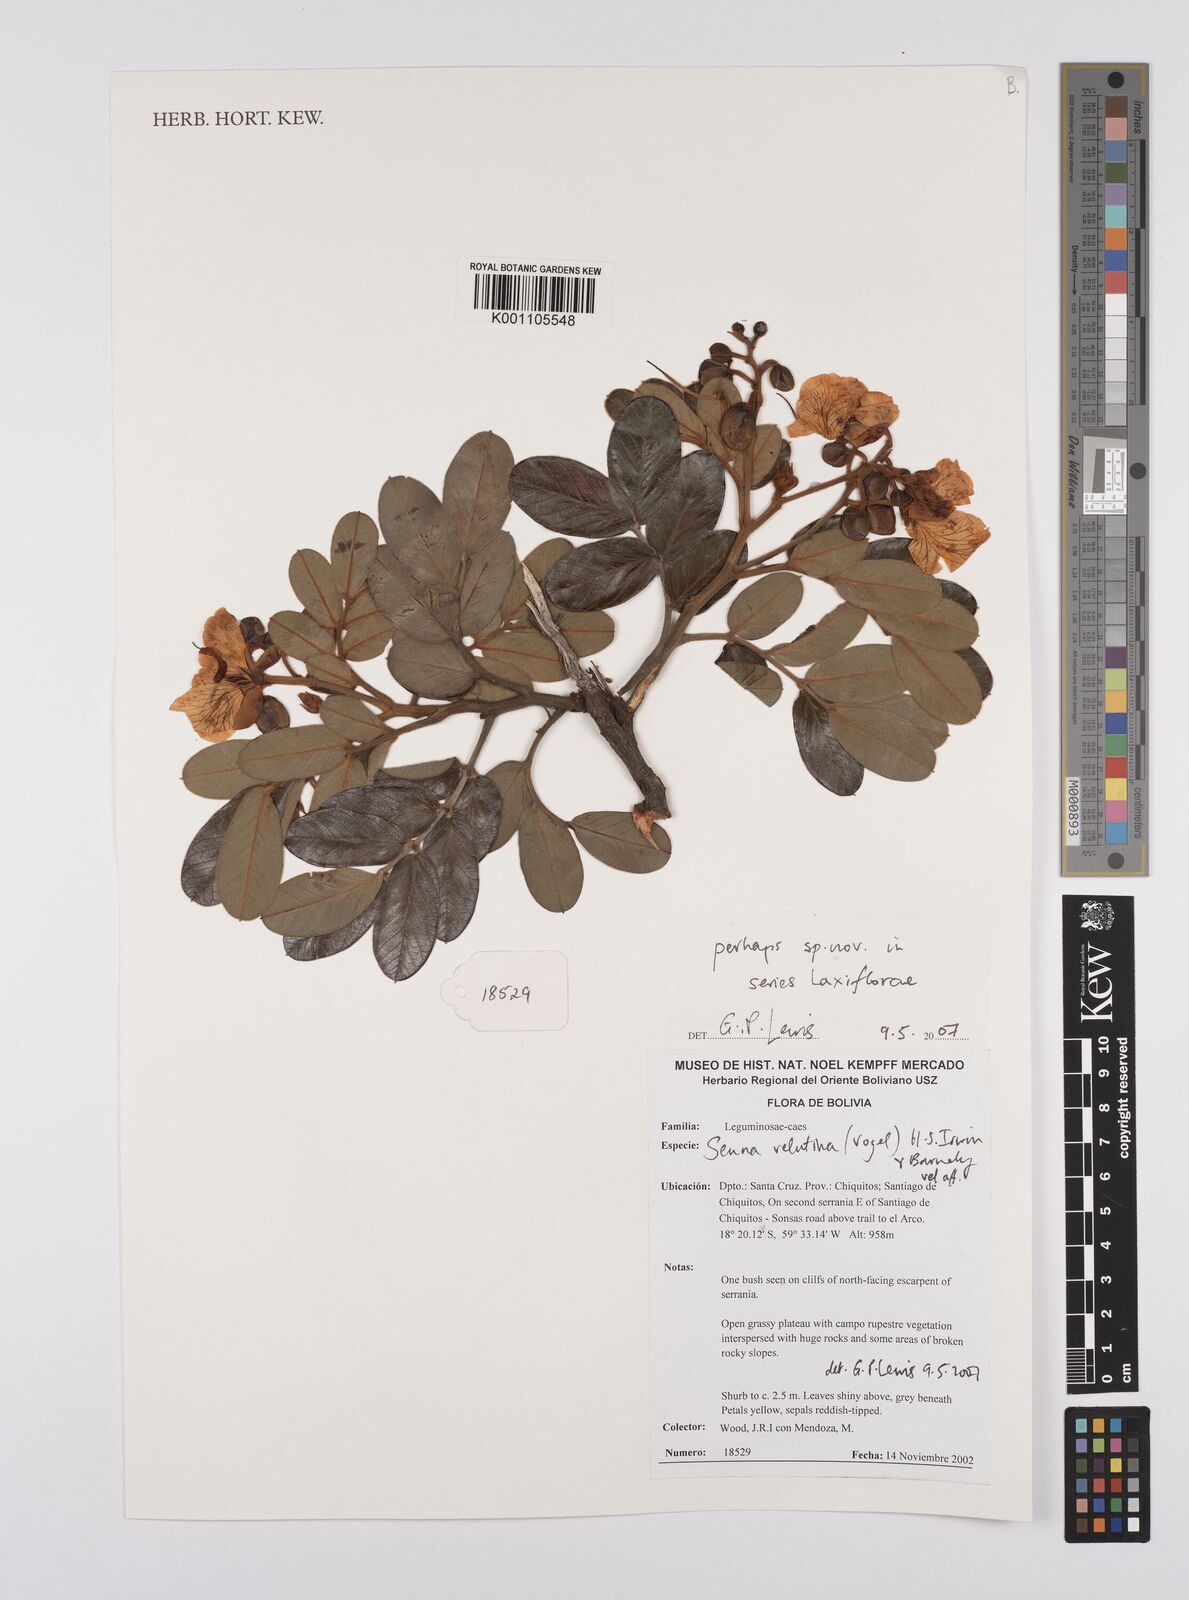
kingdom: Plantae
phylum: Tracheophyta
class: Magnoliopsida
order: Fabales
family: Fabaceae
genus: Senna
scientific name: Senna velutina
